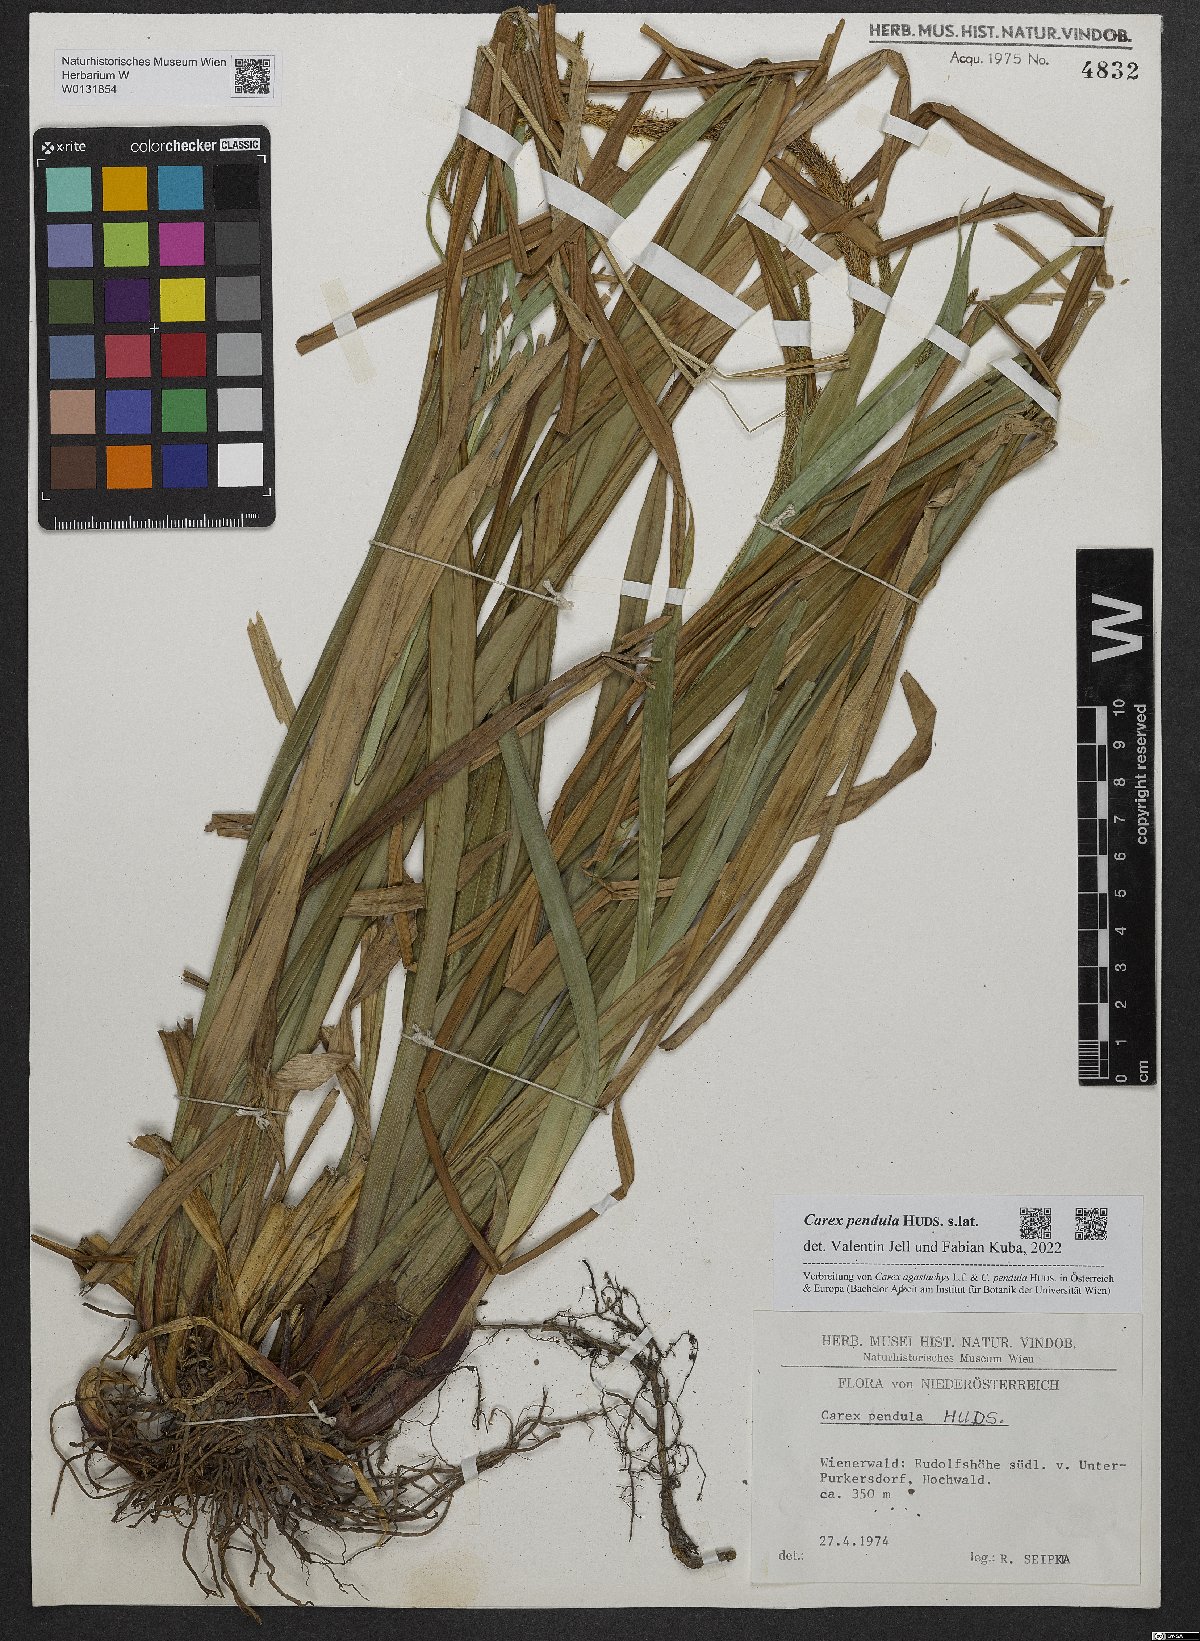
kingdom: Plantae
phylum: Tracheophyta
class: Liliopsida
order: Poales
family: Cyperaceae
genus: Carex
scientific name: Carex pendula
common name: Pendulous sedge
